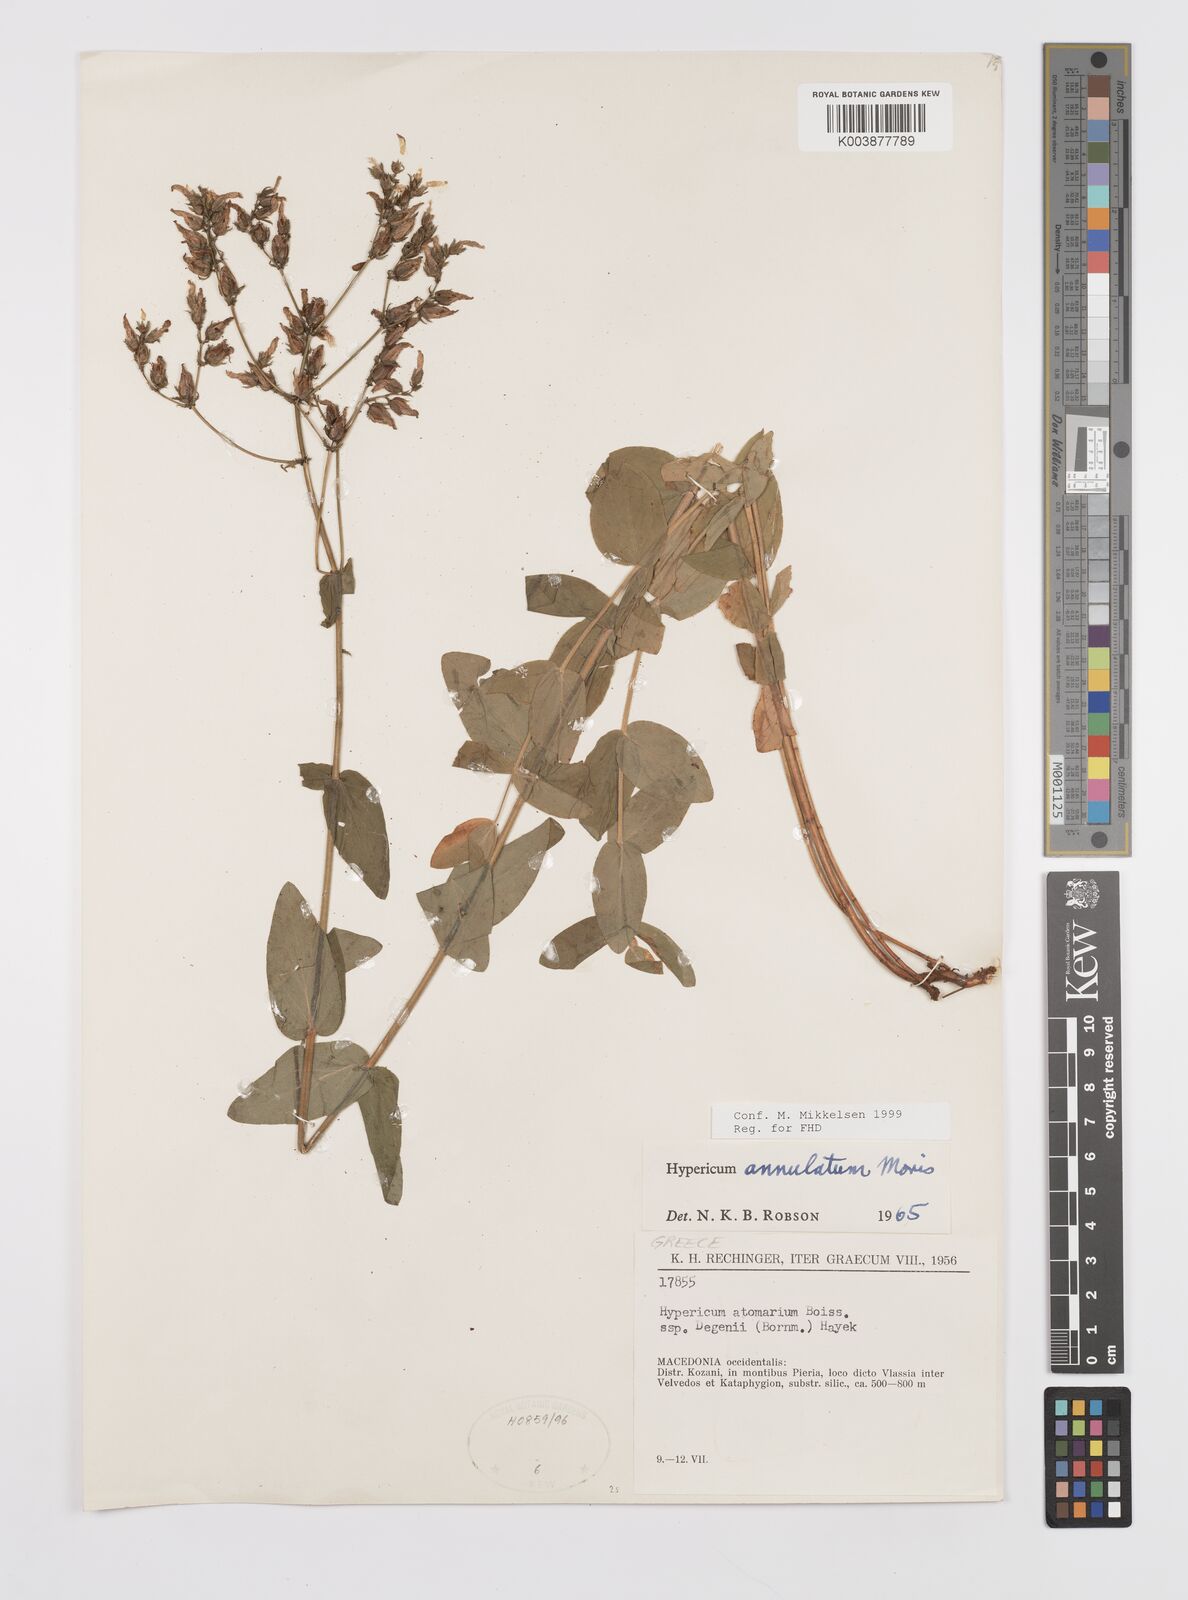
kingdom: Plantae
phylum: Tracheophyta
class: Magnoliopsida
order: Malpighiales
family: Hypericaceae
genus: Hypericum
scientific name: Hypericum annulatum
